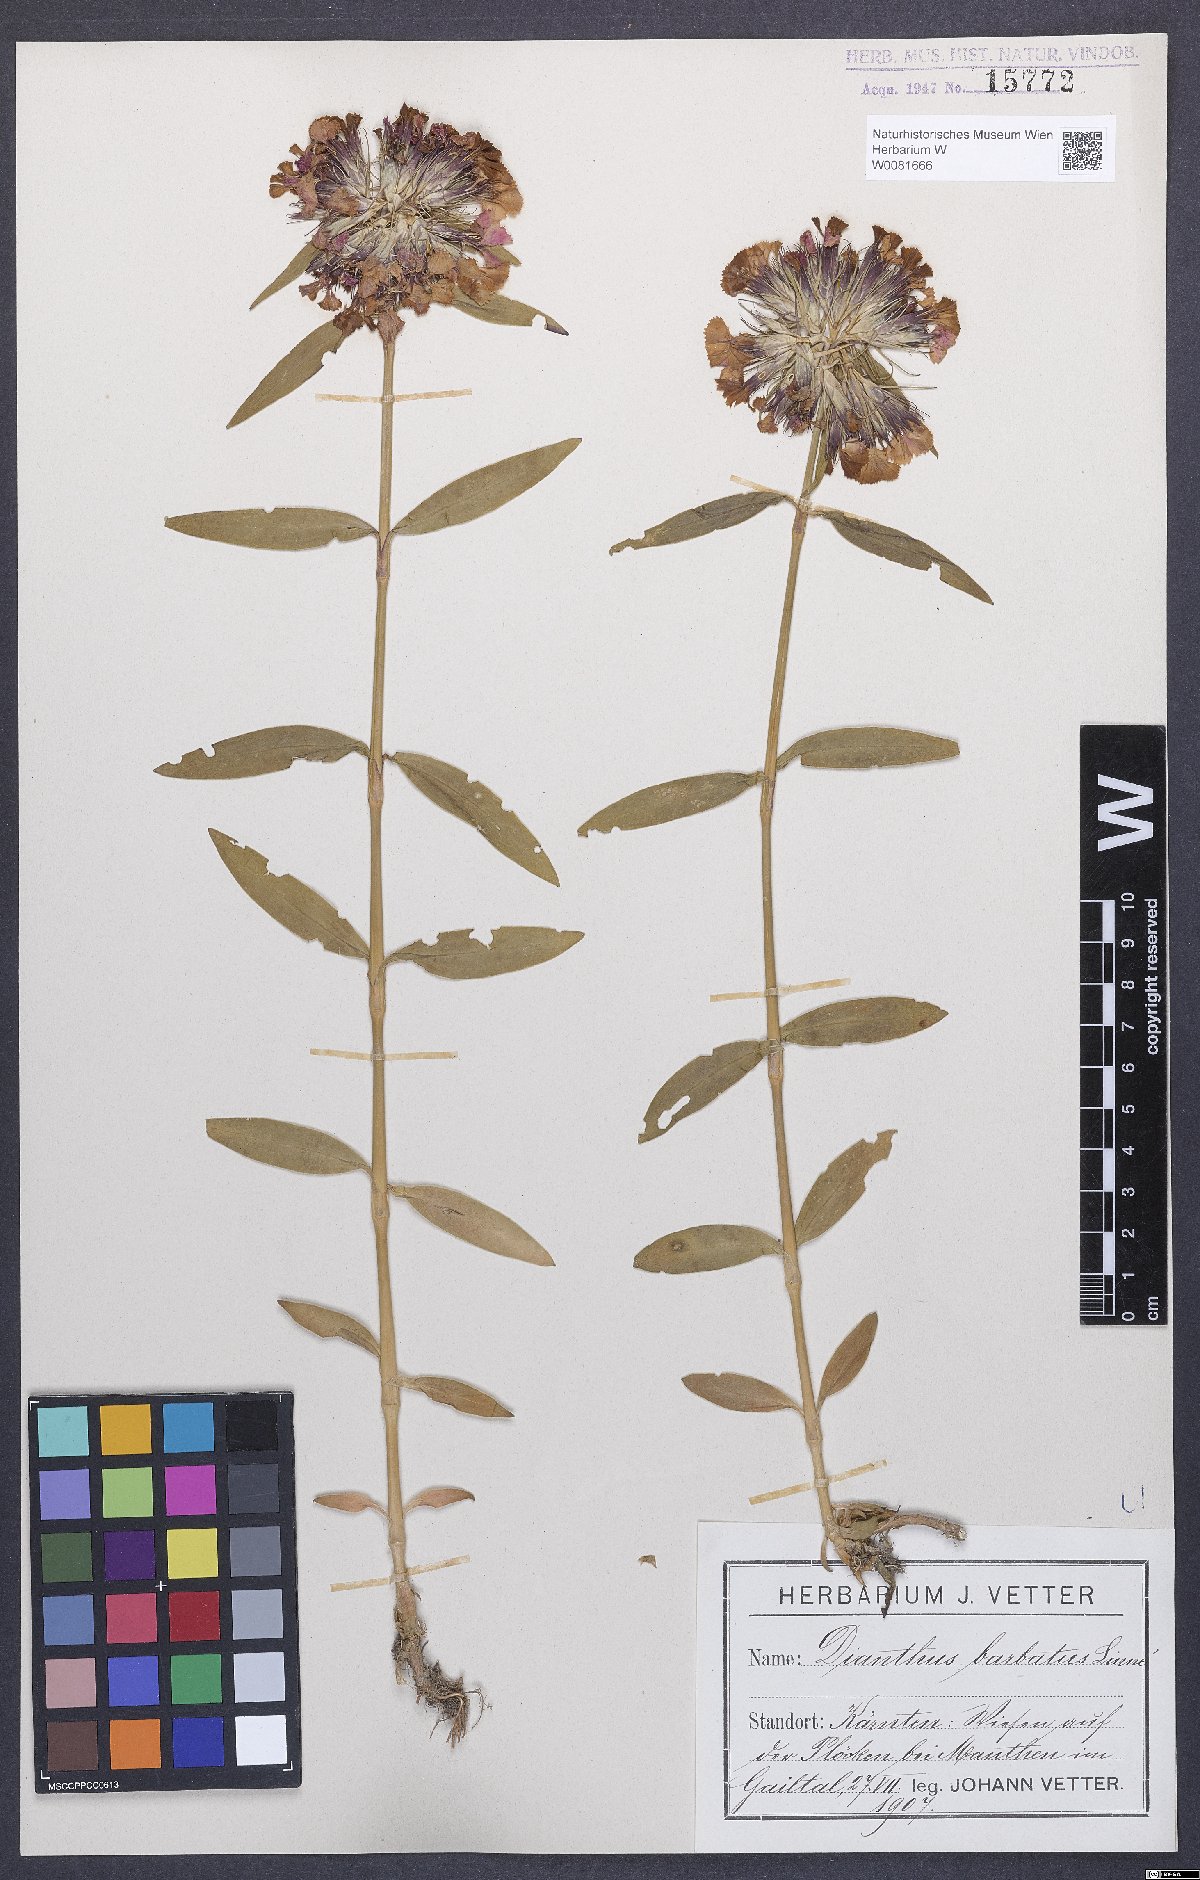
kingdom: Plantae
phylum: Tracheophyta
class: Magnoliopsida
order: Caryophyllales
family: Caryophyllaceae
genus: Dianthus
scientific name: Dianthus barbatus
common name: Sweet-william
